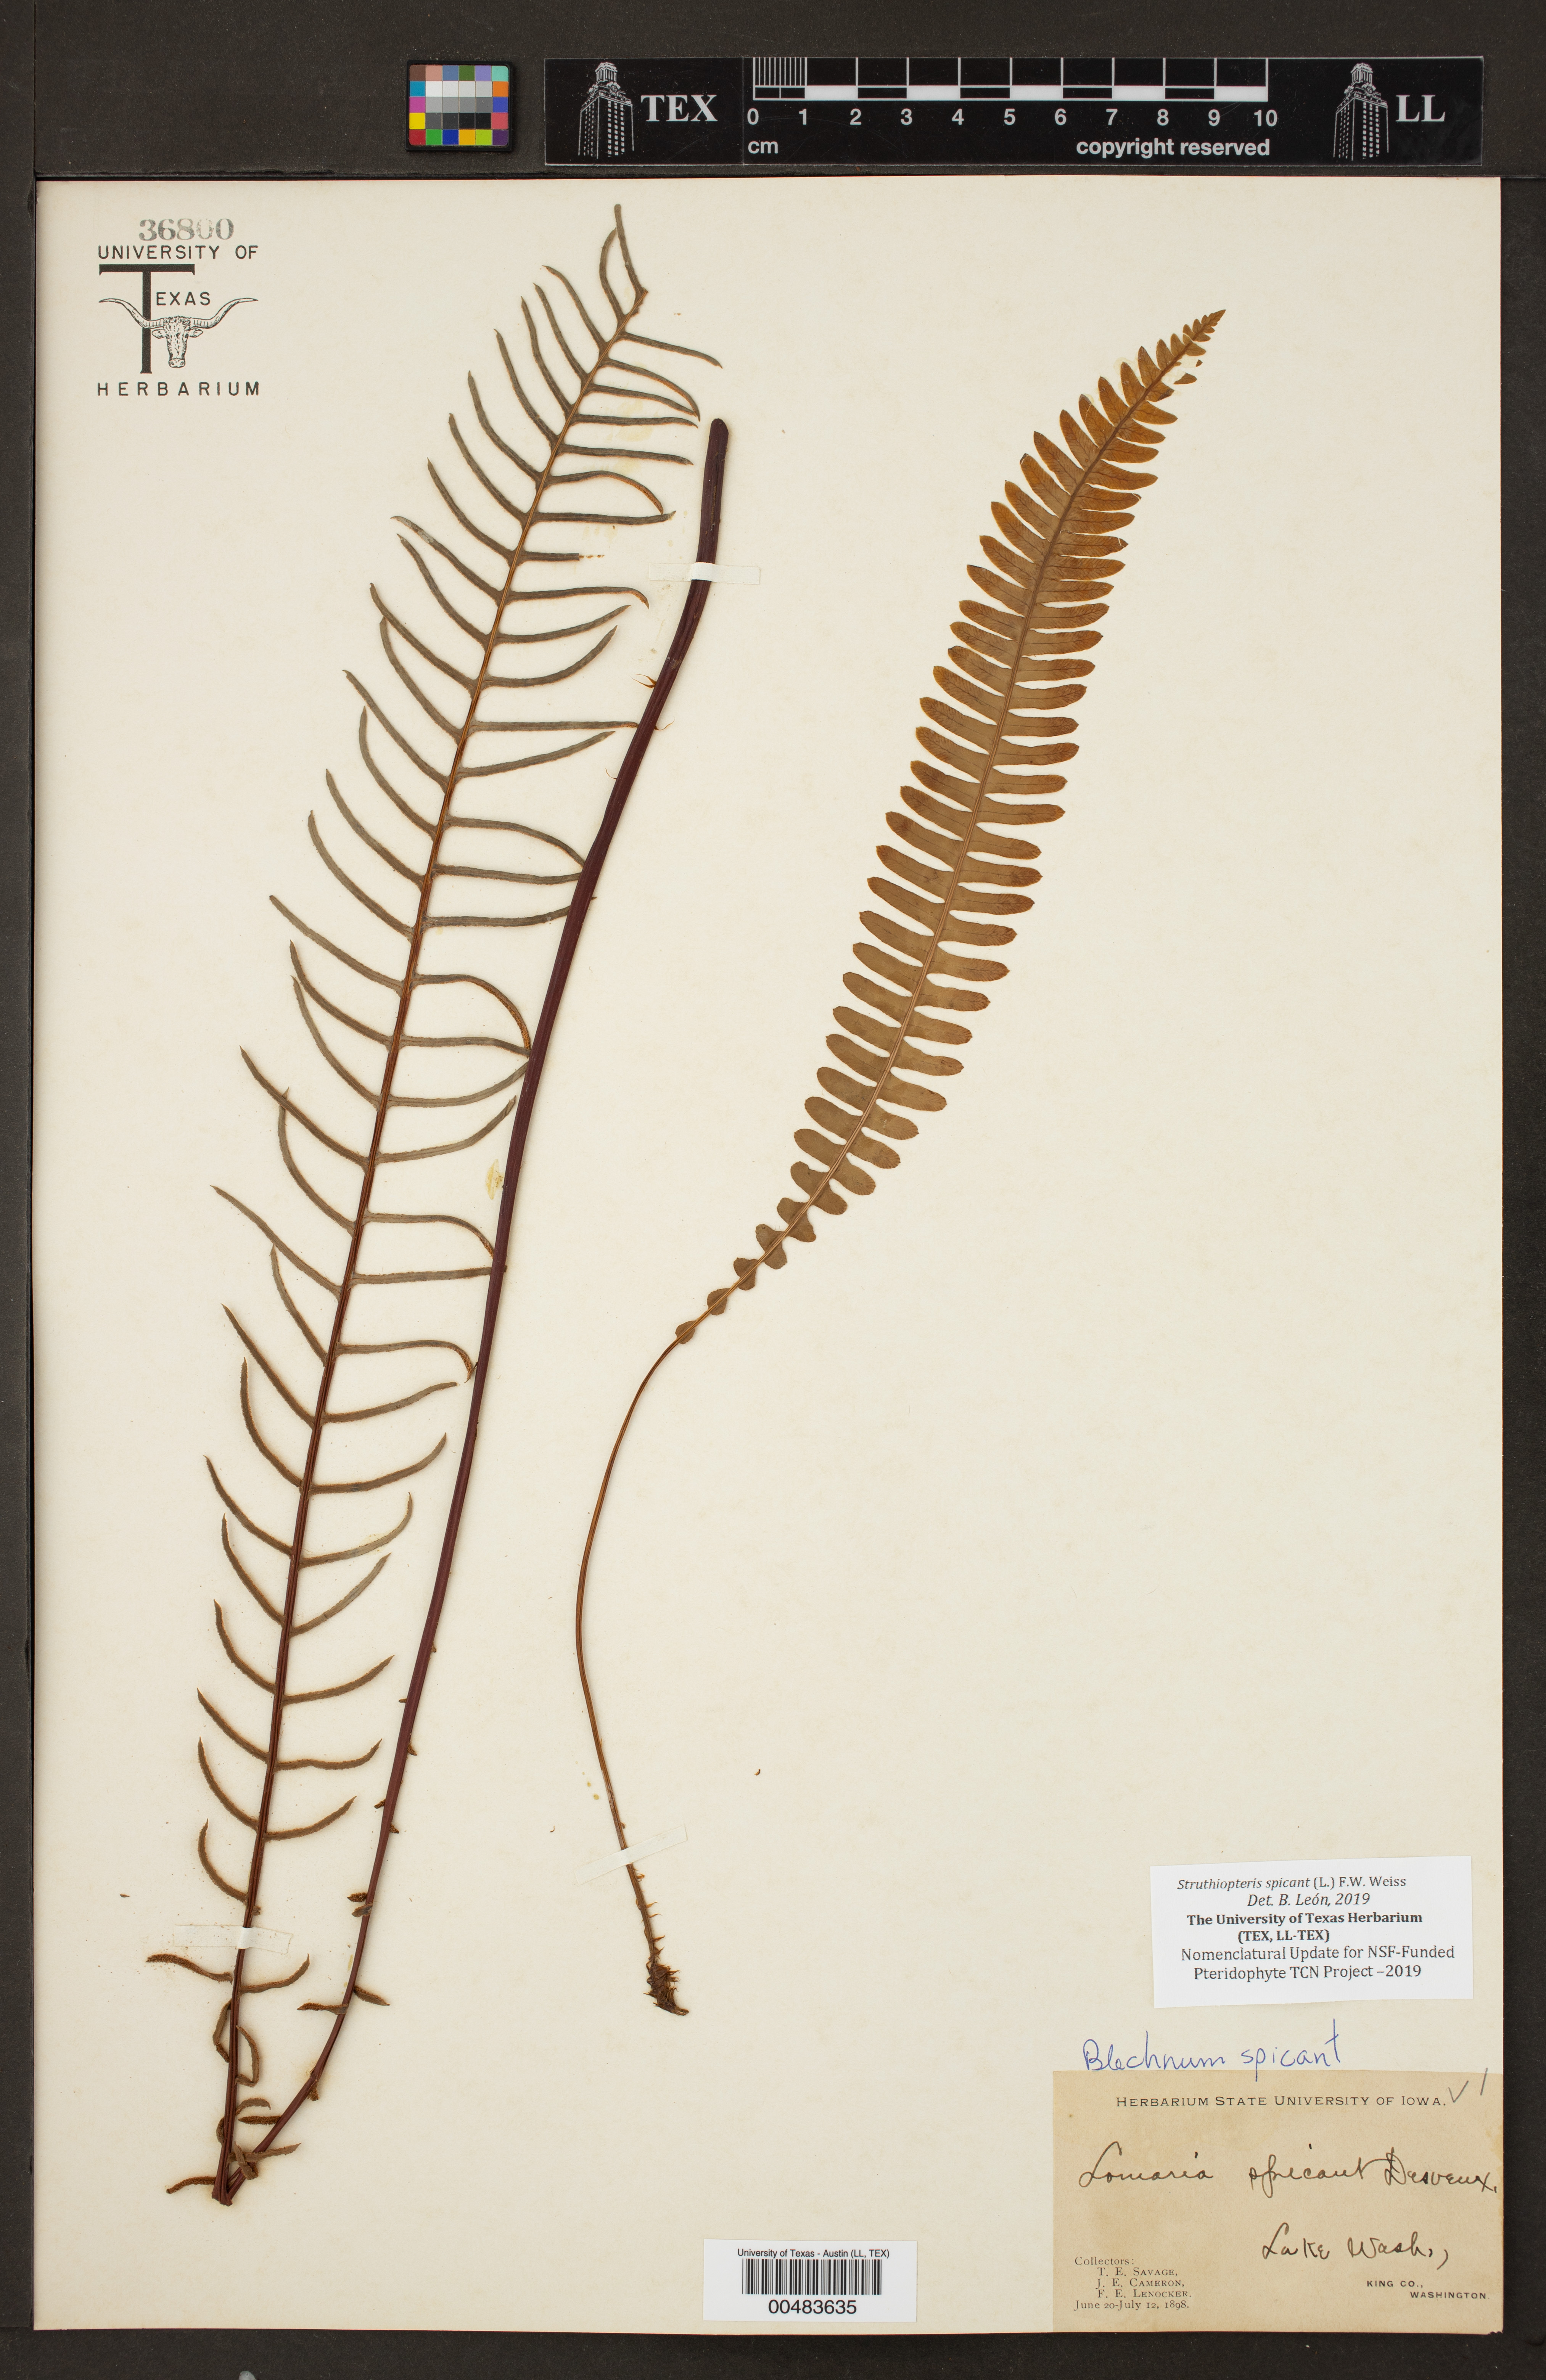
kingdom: Plantae
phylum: Tracheophyta
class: Polypodiopsida
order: Polypodiales
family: Blechnaceae
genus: Struthiopteris
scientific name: Struthiopteris spicant
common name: Deer fern
